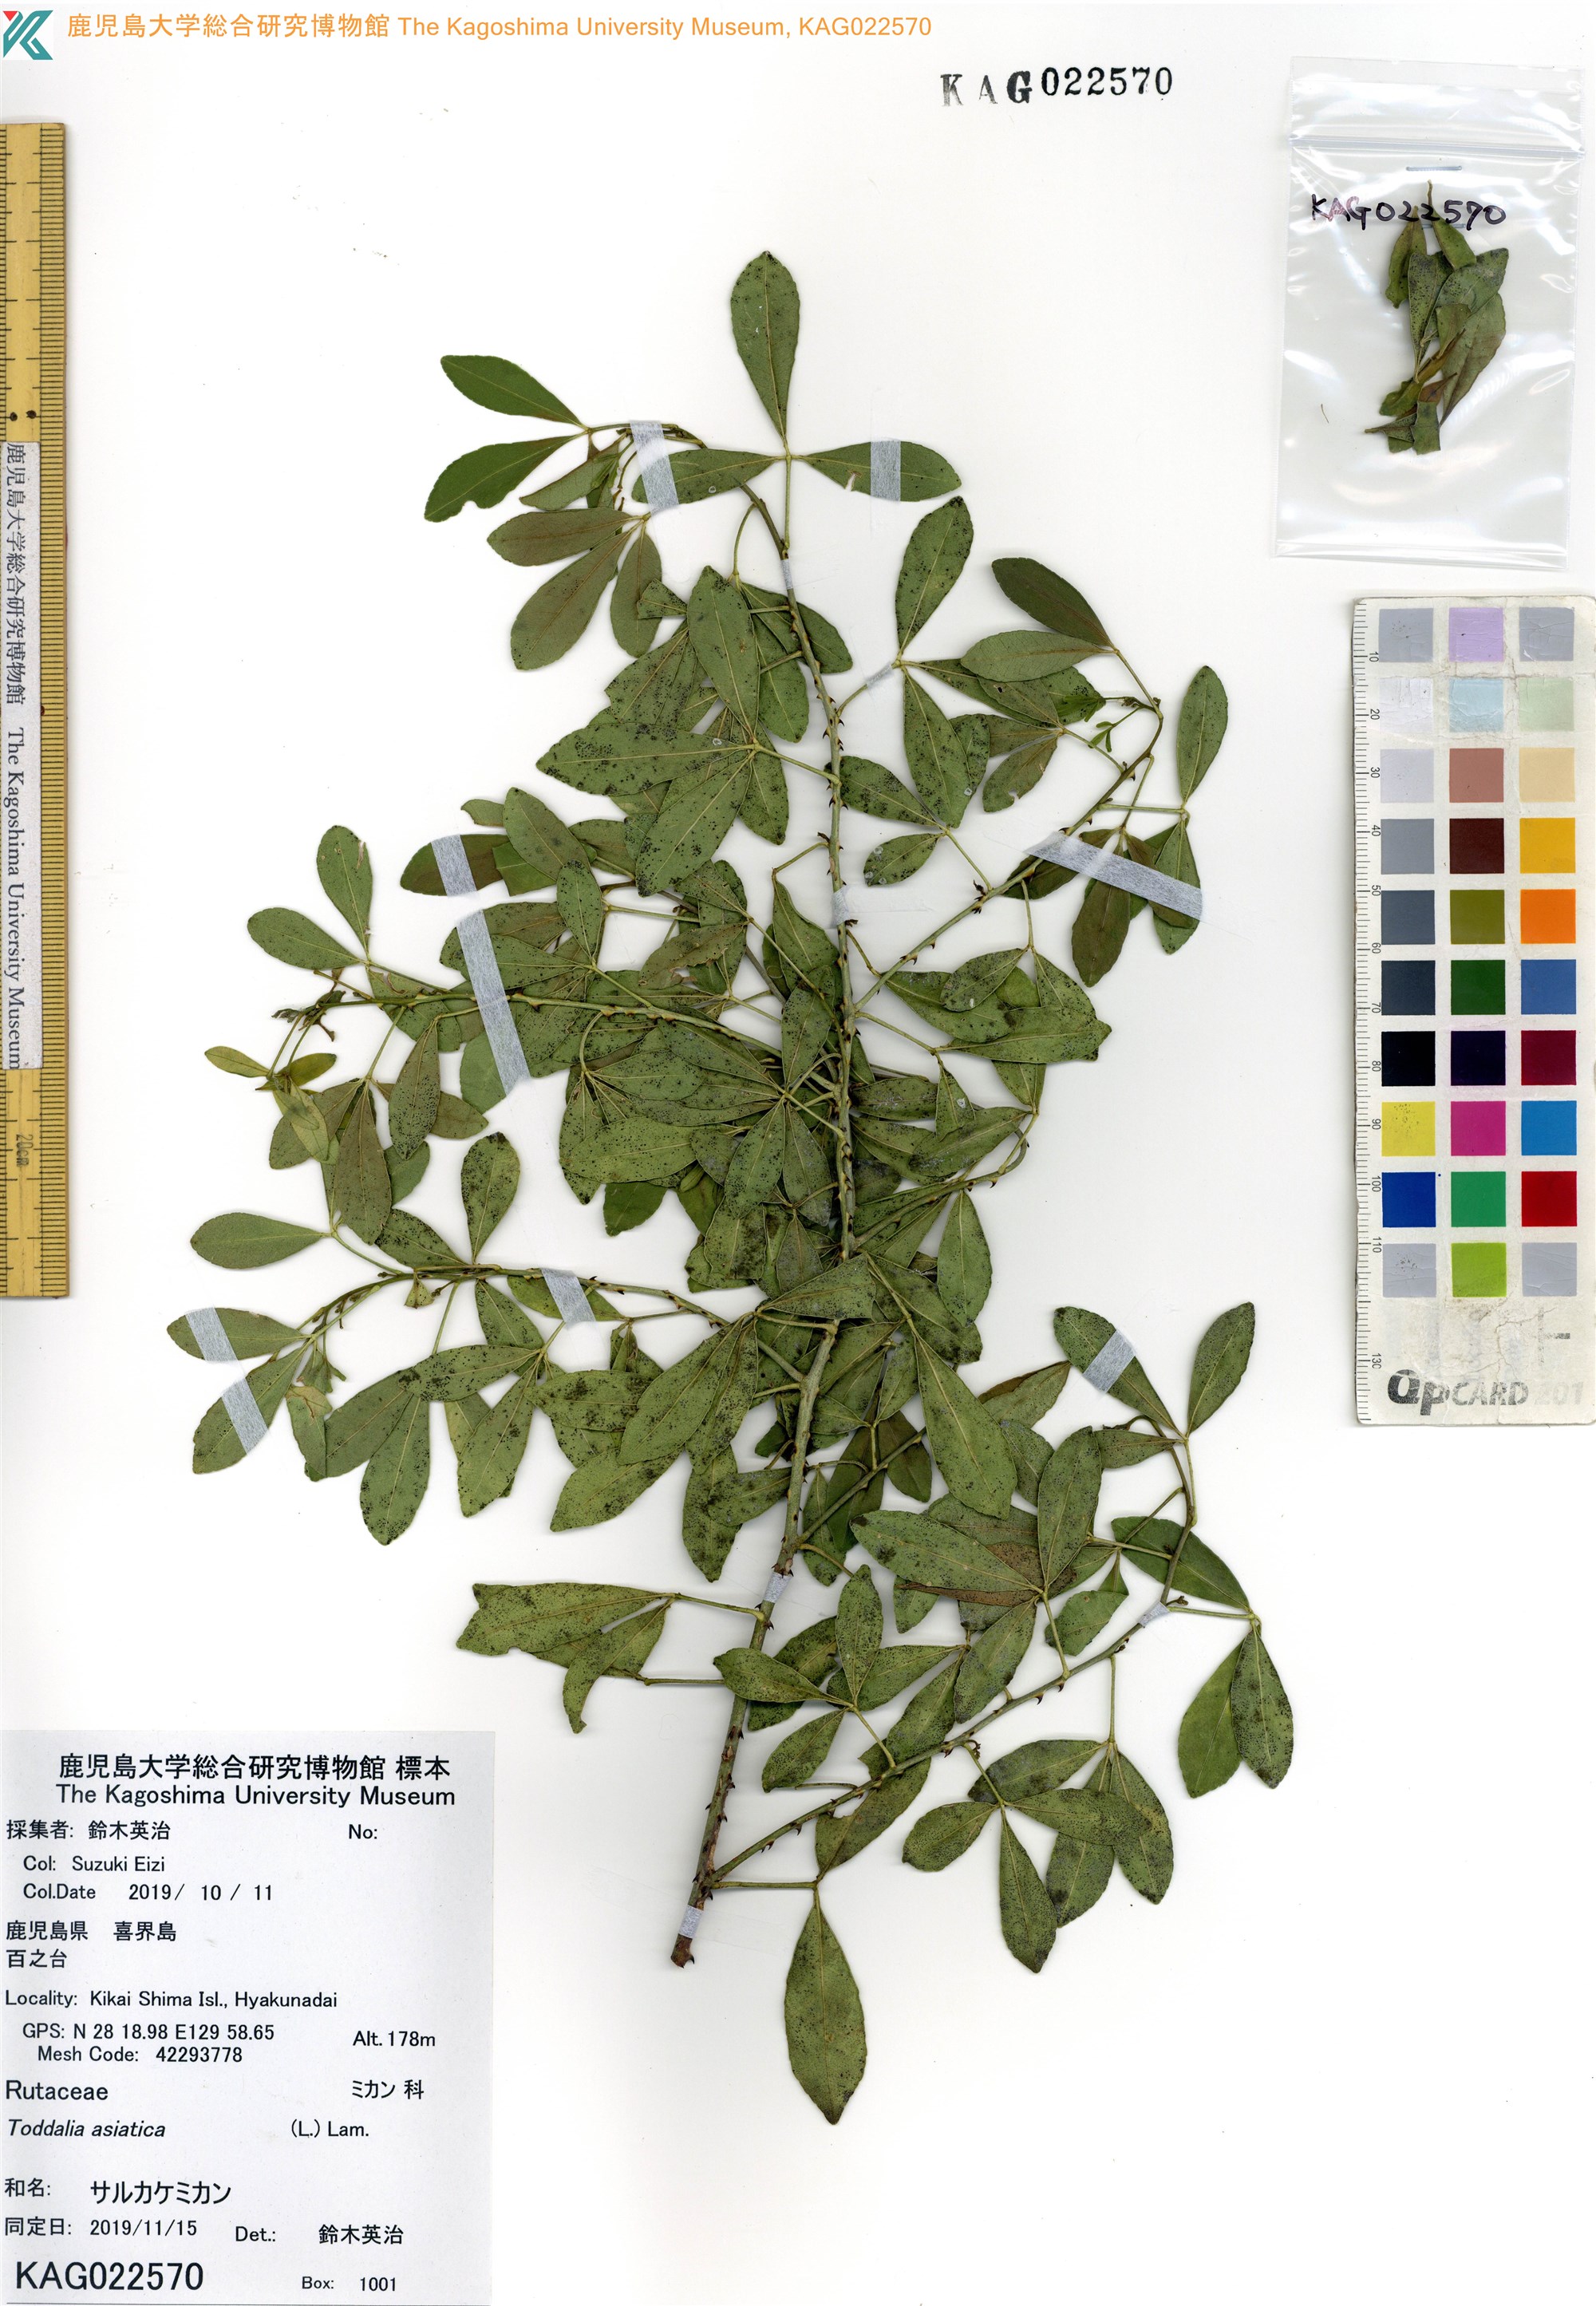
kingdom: Plantae
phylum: Tracheophyta
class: Magnoliopsida
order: Sapindales
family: Rutaceae
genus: Zanthoxylum
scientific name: Zanthoxylum asiaticum
